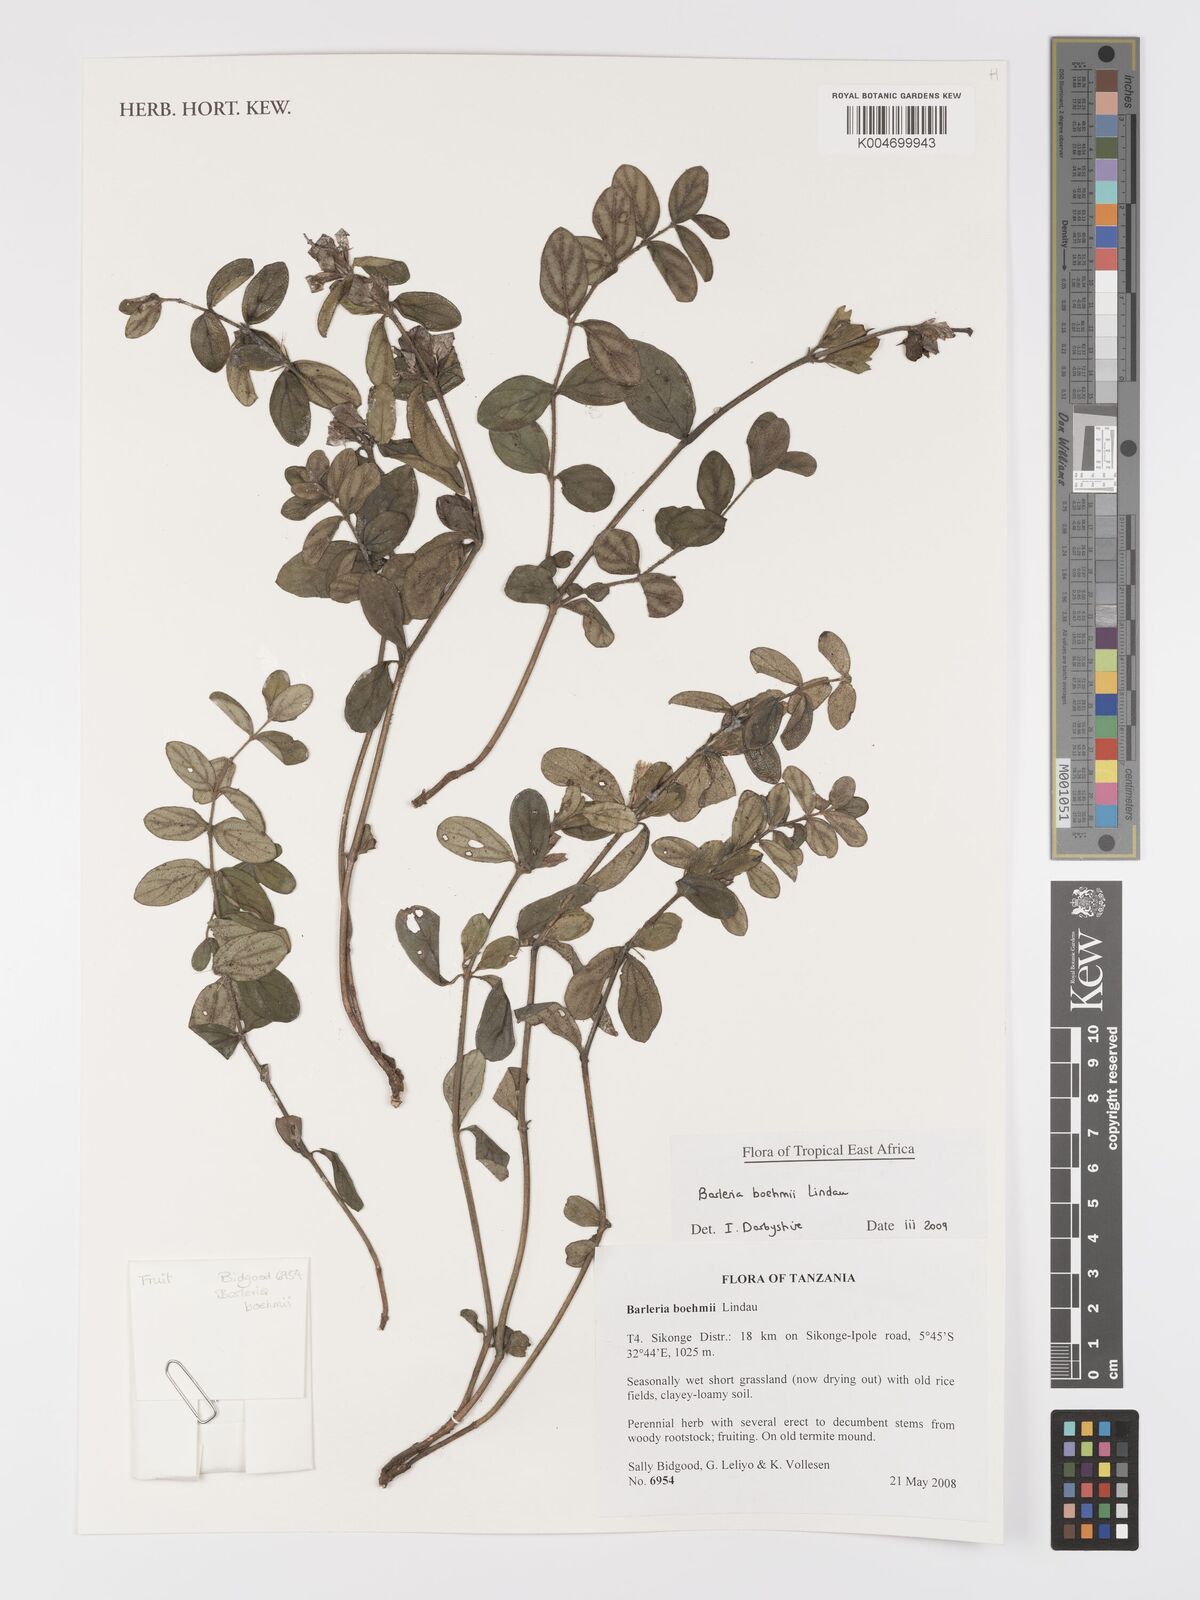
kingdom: Plantae
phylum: Tracheophyta
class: Magnoliopsida
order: Lamiales
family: Acanthaceae
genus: Barleria
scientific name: Barleria boehmii
